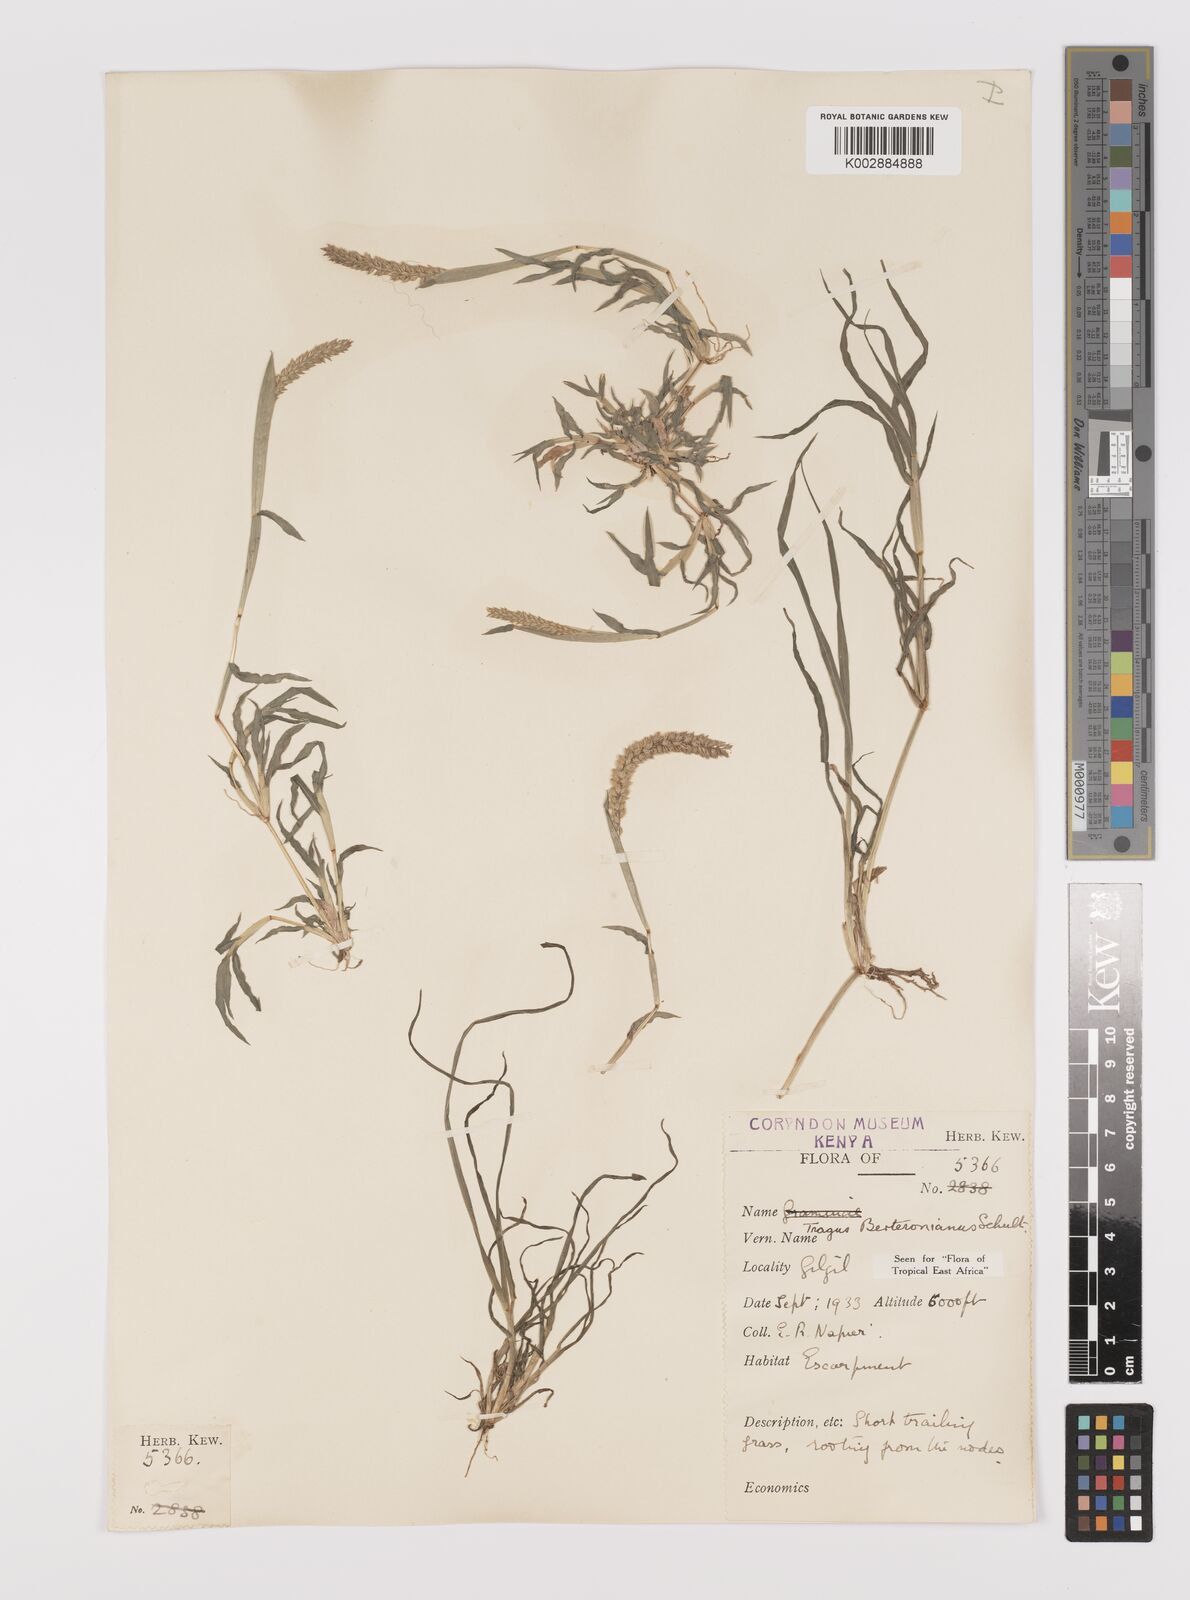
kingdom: Plantae
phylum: Tracheophyta
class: Liliopsida
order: Poales
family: Poaceae
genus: Tragus
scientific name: Tragus berteronianus
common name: African bur-grass
